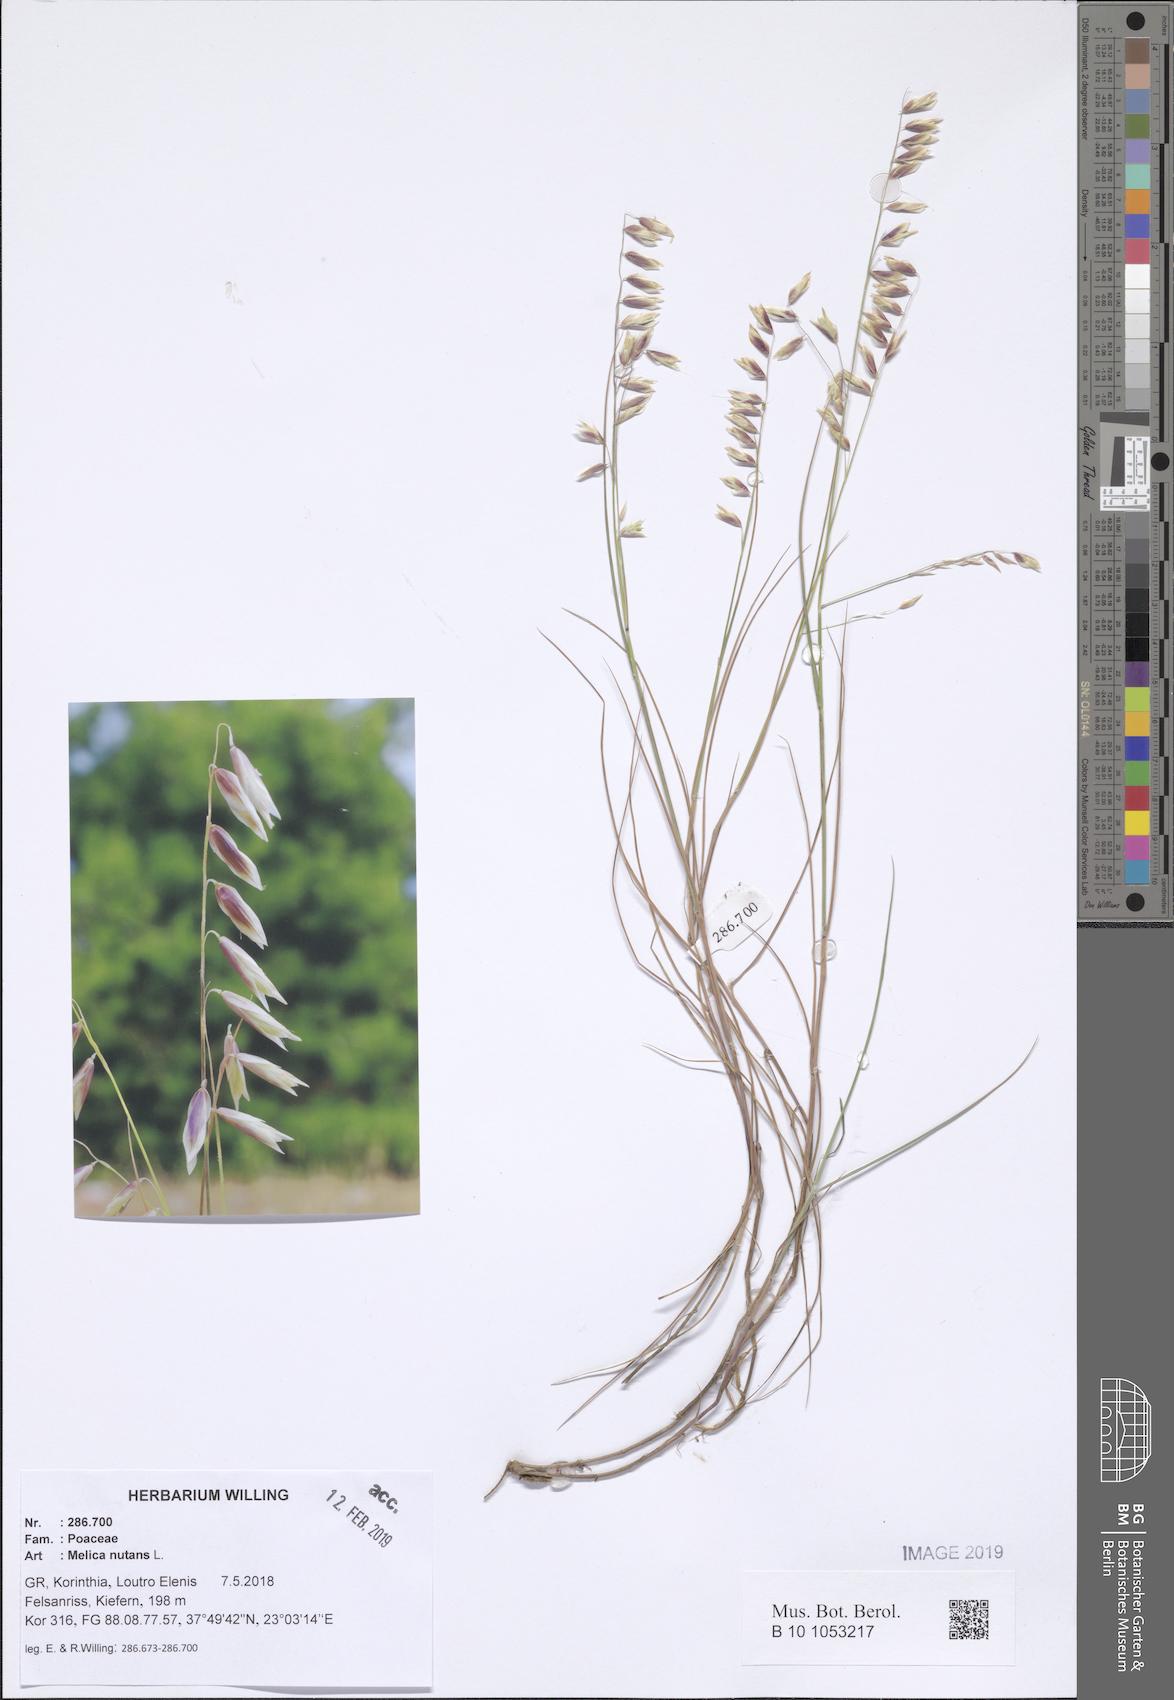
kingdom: Plantae
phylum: Tracheophyta
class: Liliopsida
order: Poales
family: Poaceae
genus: Melica
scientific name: Melica nutans
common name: Mountain melick
